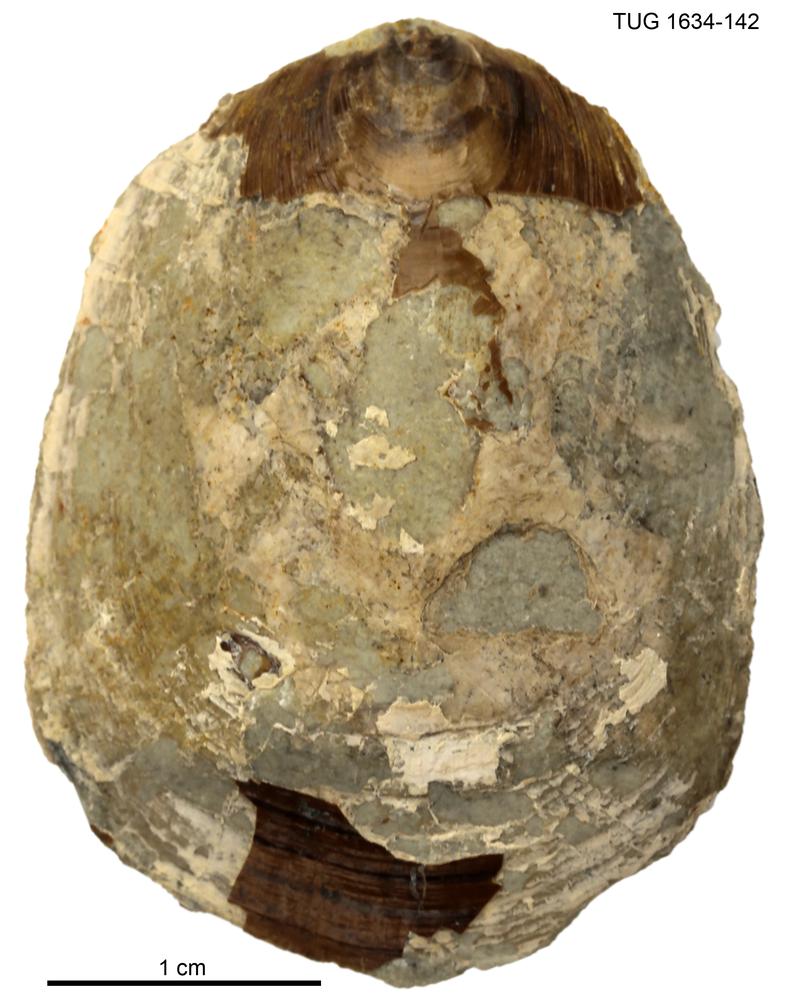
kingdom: Animalia
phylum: Brachiopoda
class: Lingulata
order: Lingulida
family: Pseudolingulidae
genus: Pseudolingula
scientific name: Pseudolingula Crania quadrata
